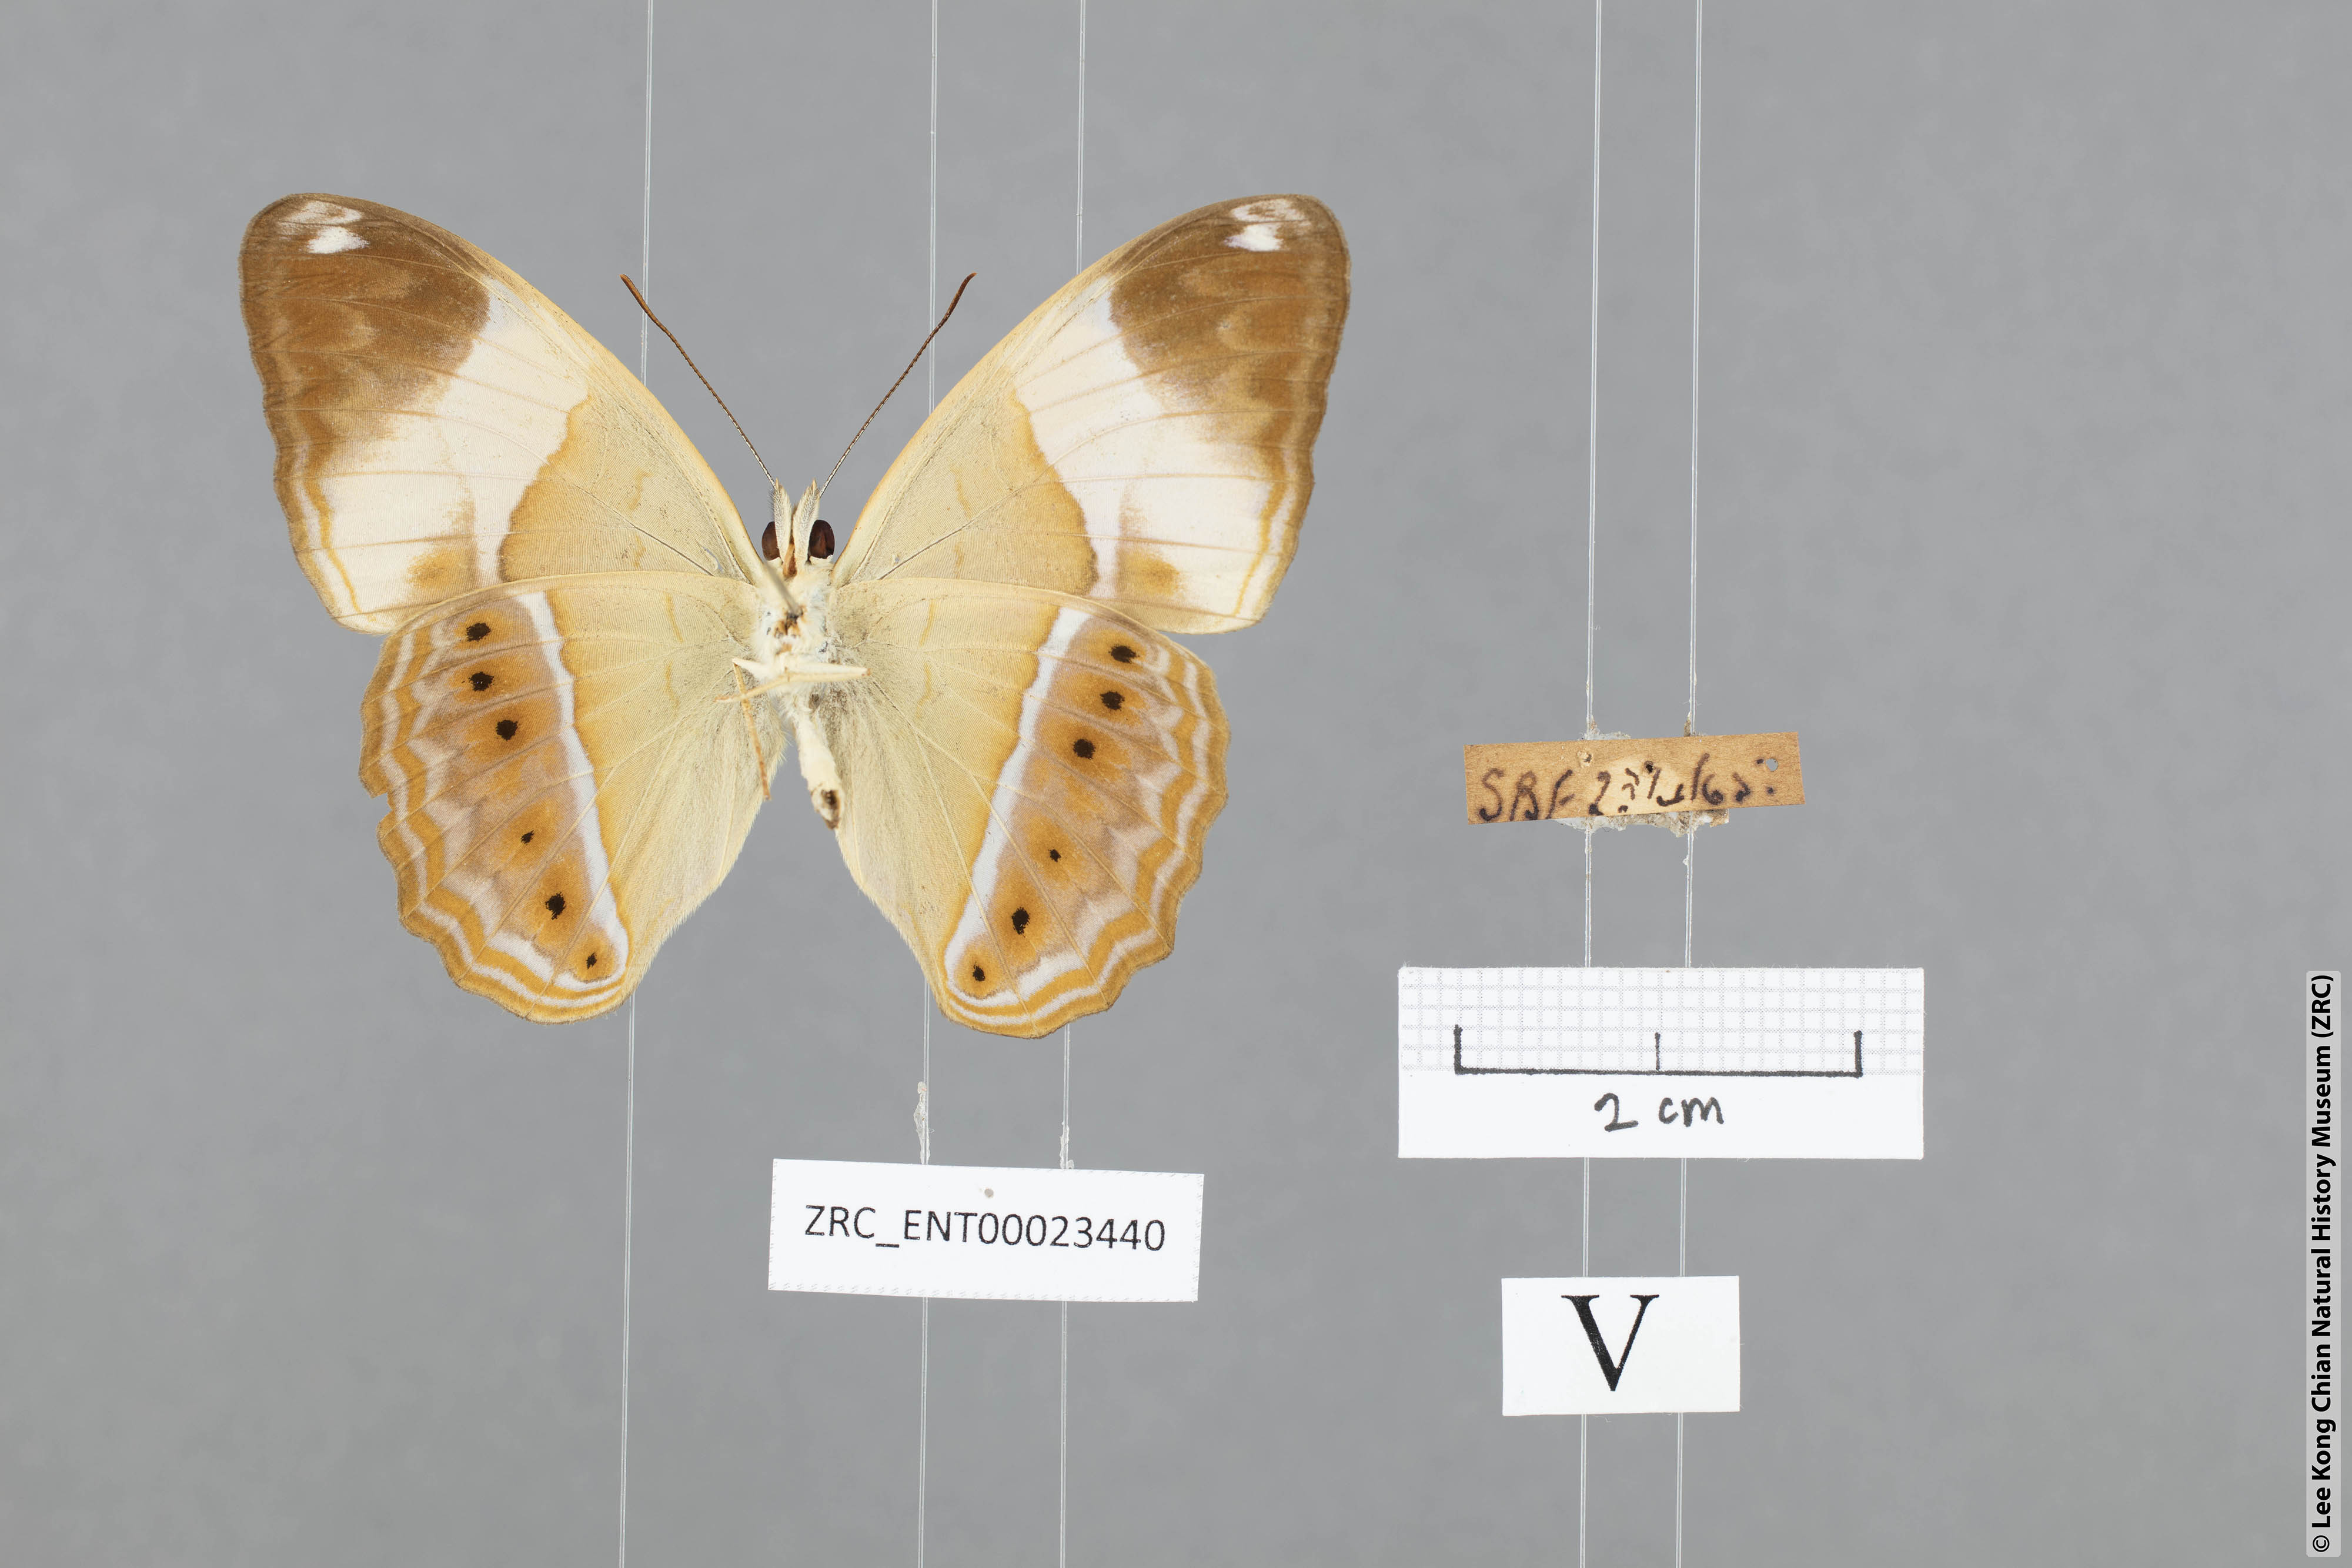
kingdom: Animalia
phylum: Arthropoda
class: Insecta
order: Lepidoptera
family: Nymphalidae
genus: Cirrochroa
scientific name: Cirrochroa orissa
